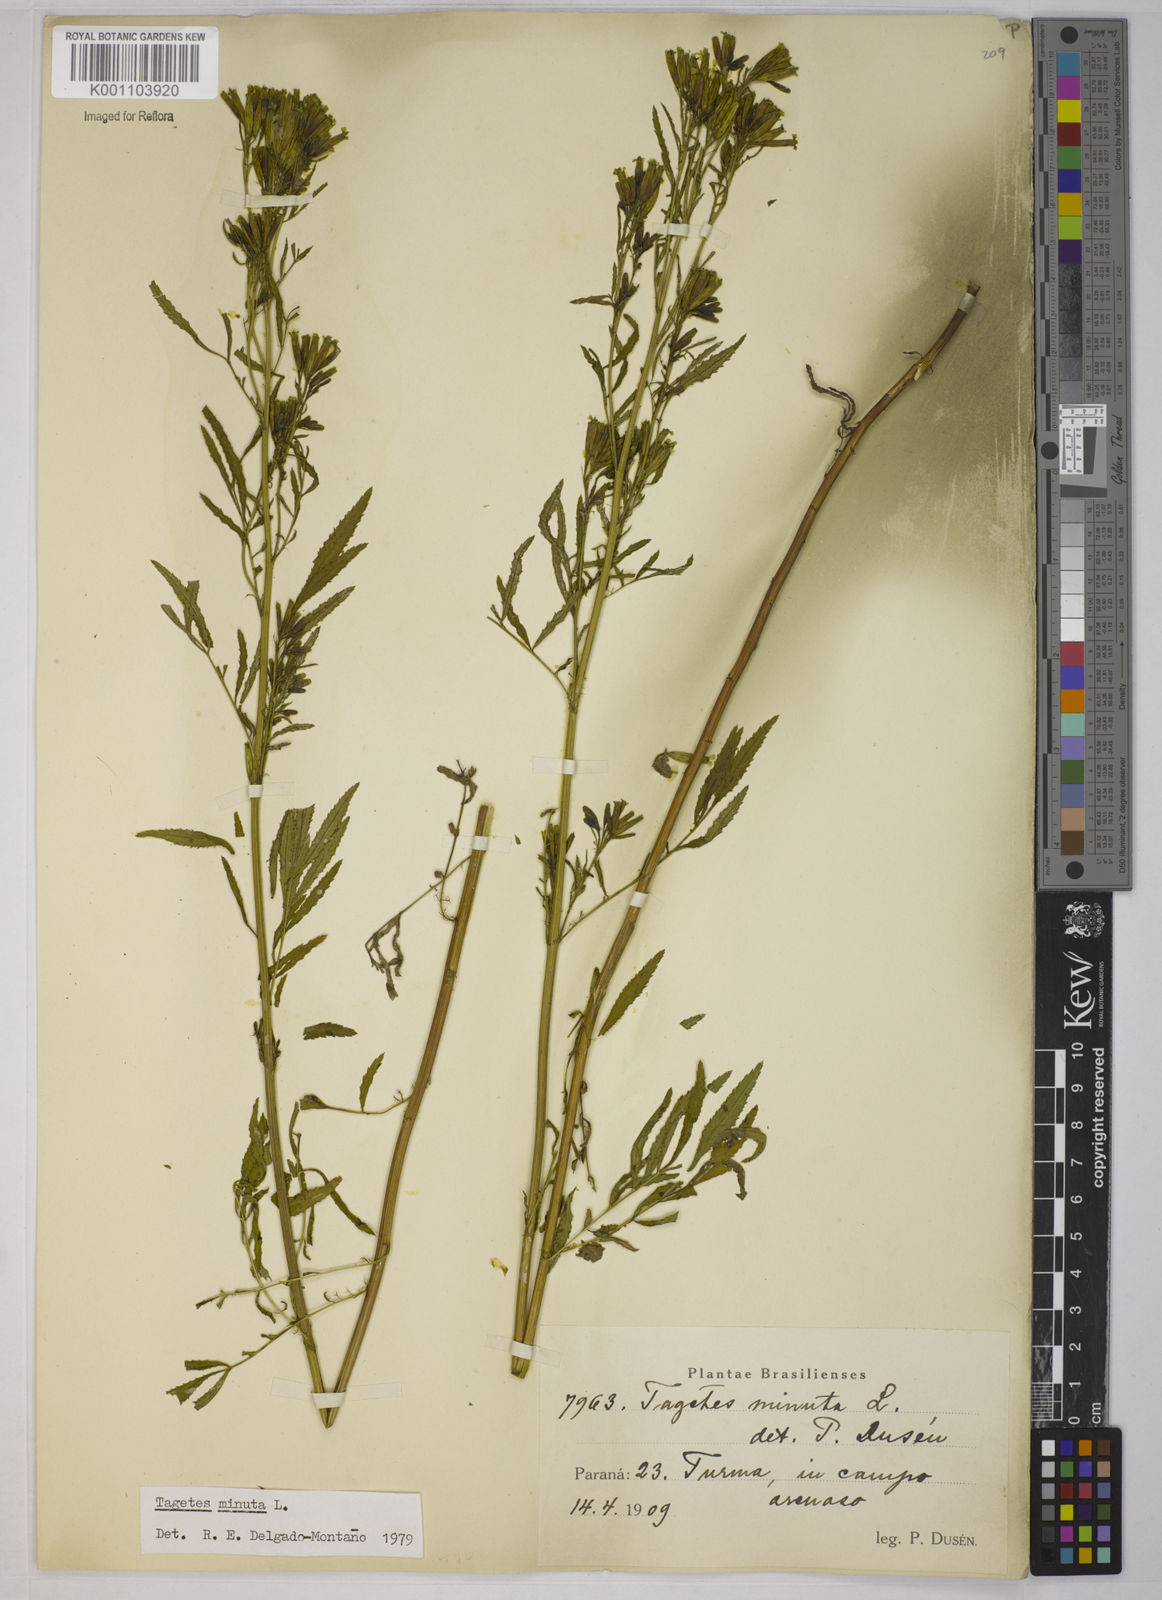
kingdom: Plantae
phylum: Tracheophyta
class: Magnoliopsida
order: Asterales
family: Asteraceae
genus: Tagetes
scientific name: Tagetes minuta
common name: Muster john henry
